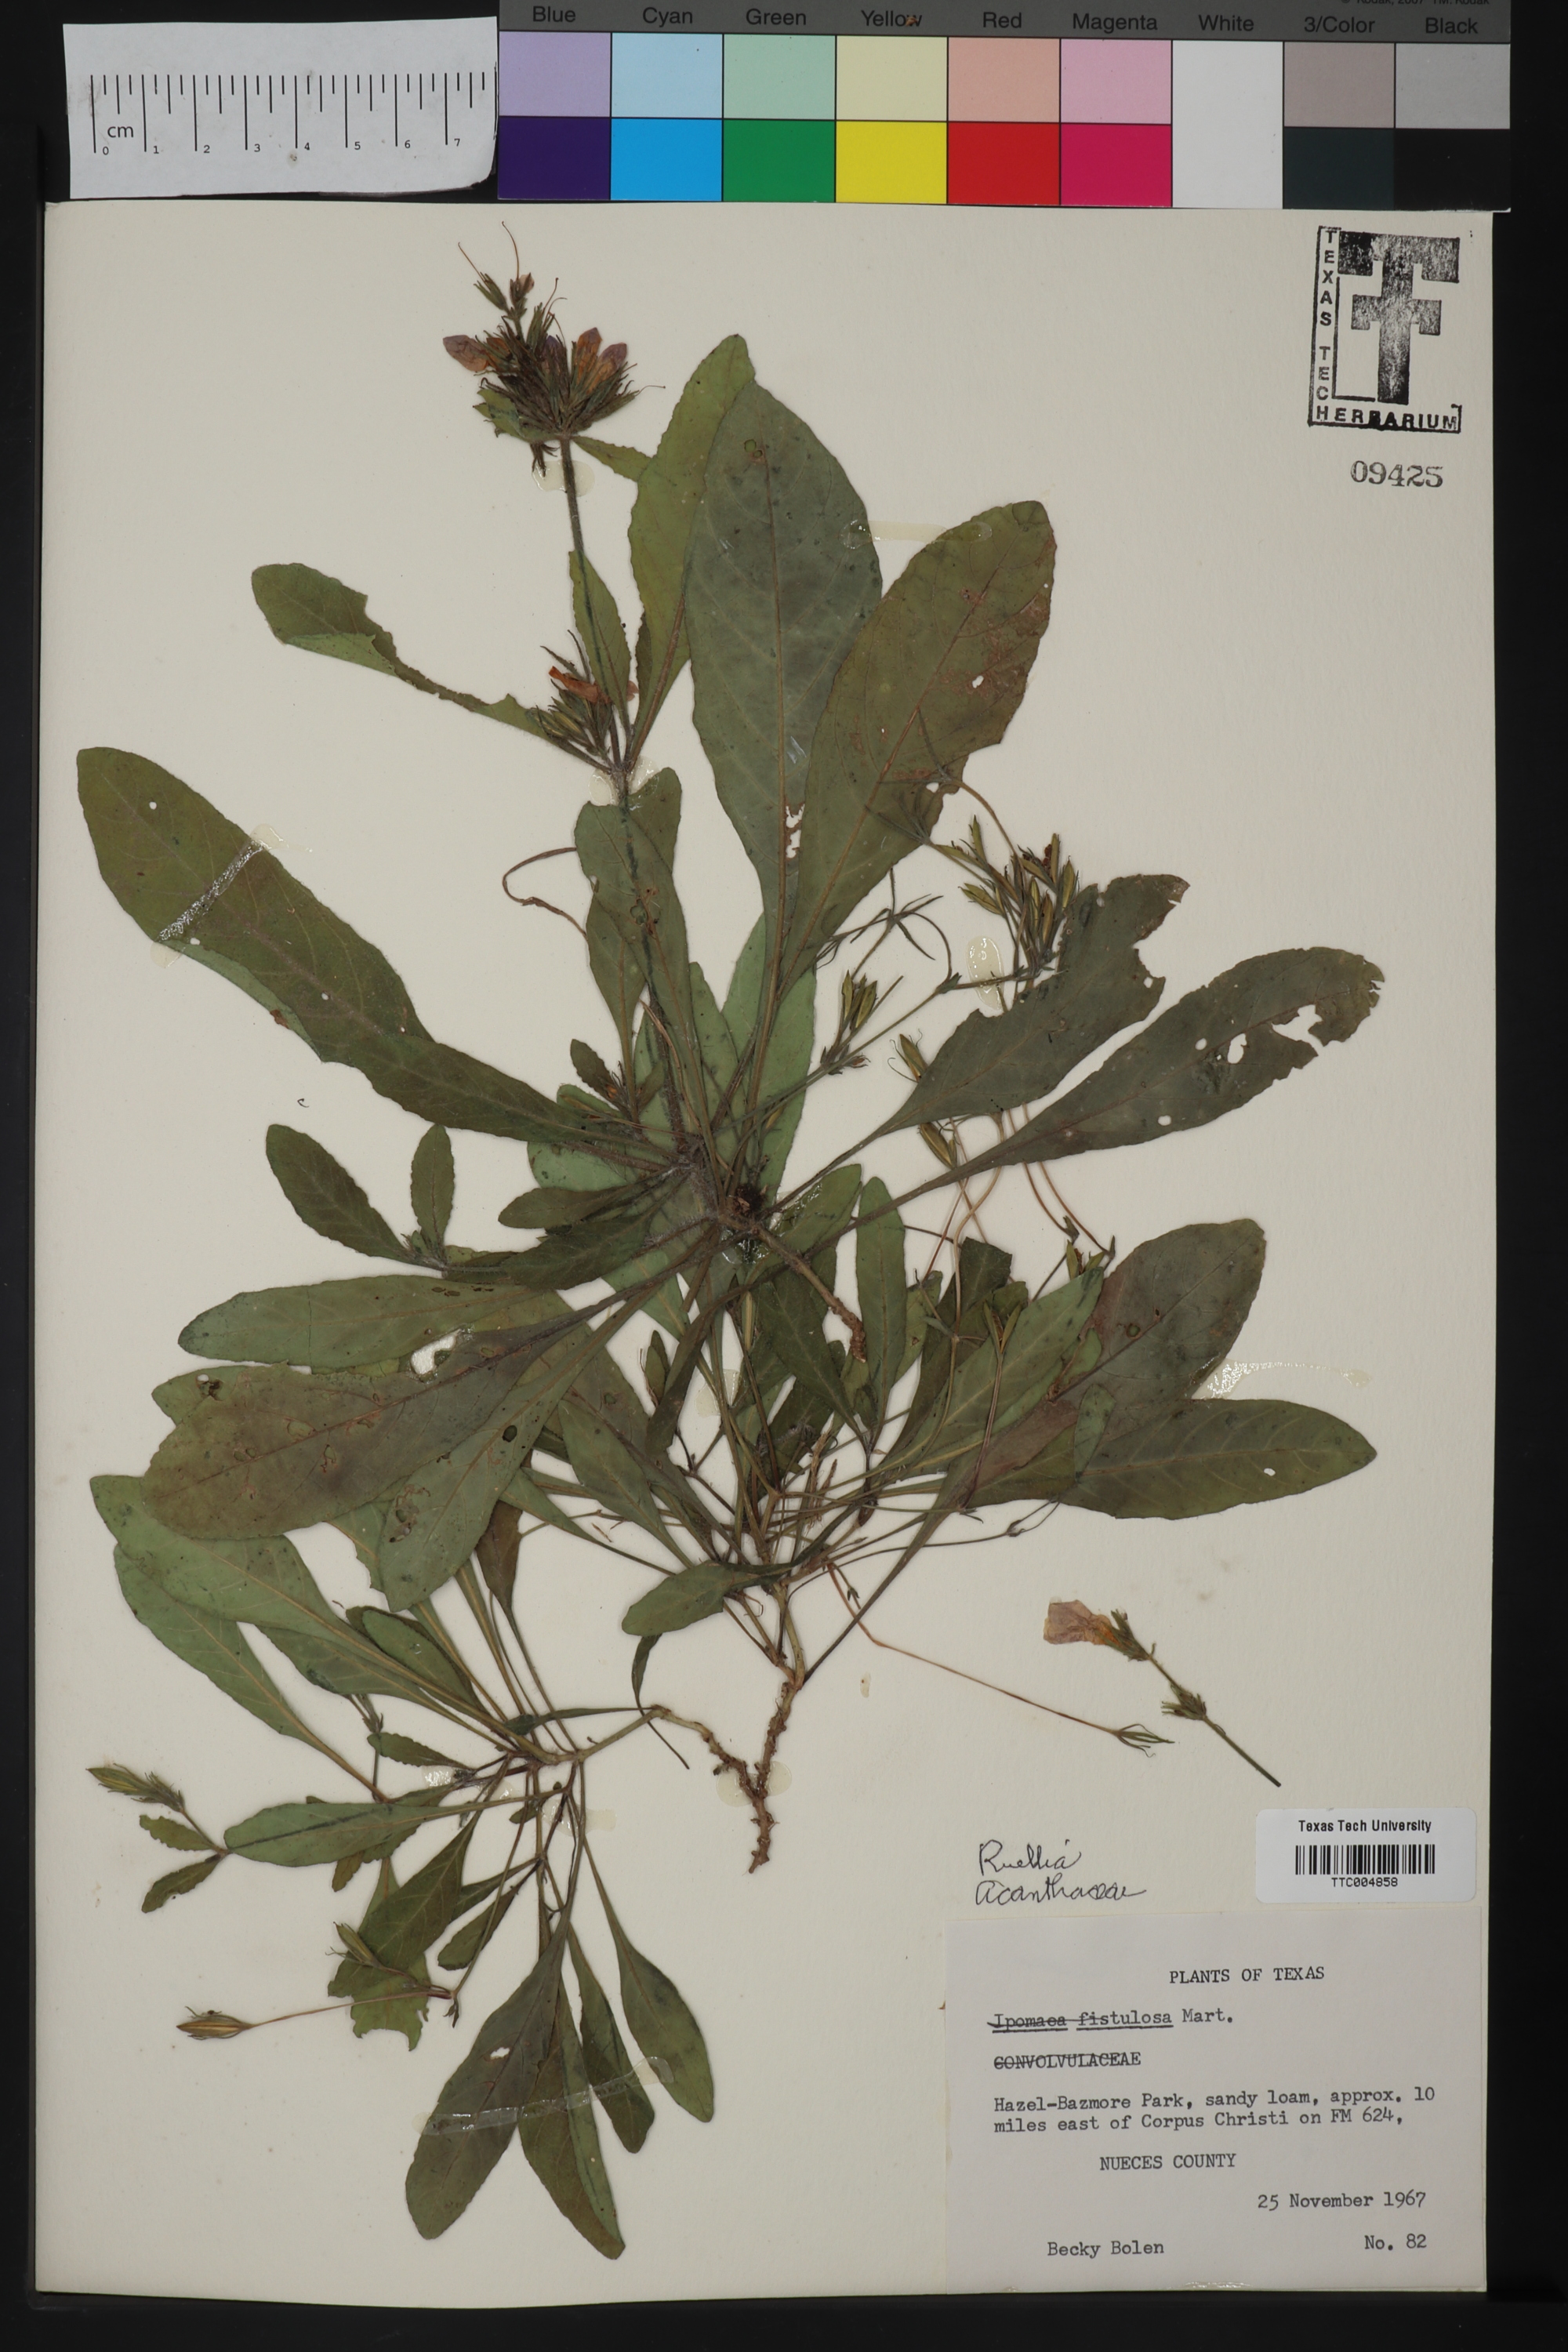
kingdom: Plantae
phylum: Tracheophyta
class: Magnoliopsida
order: Lamiales
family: Acanthaceae
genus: Ruellia
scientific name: Ruellia
